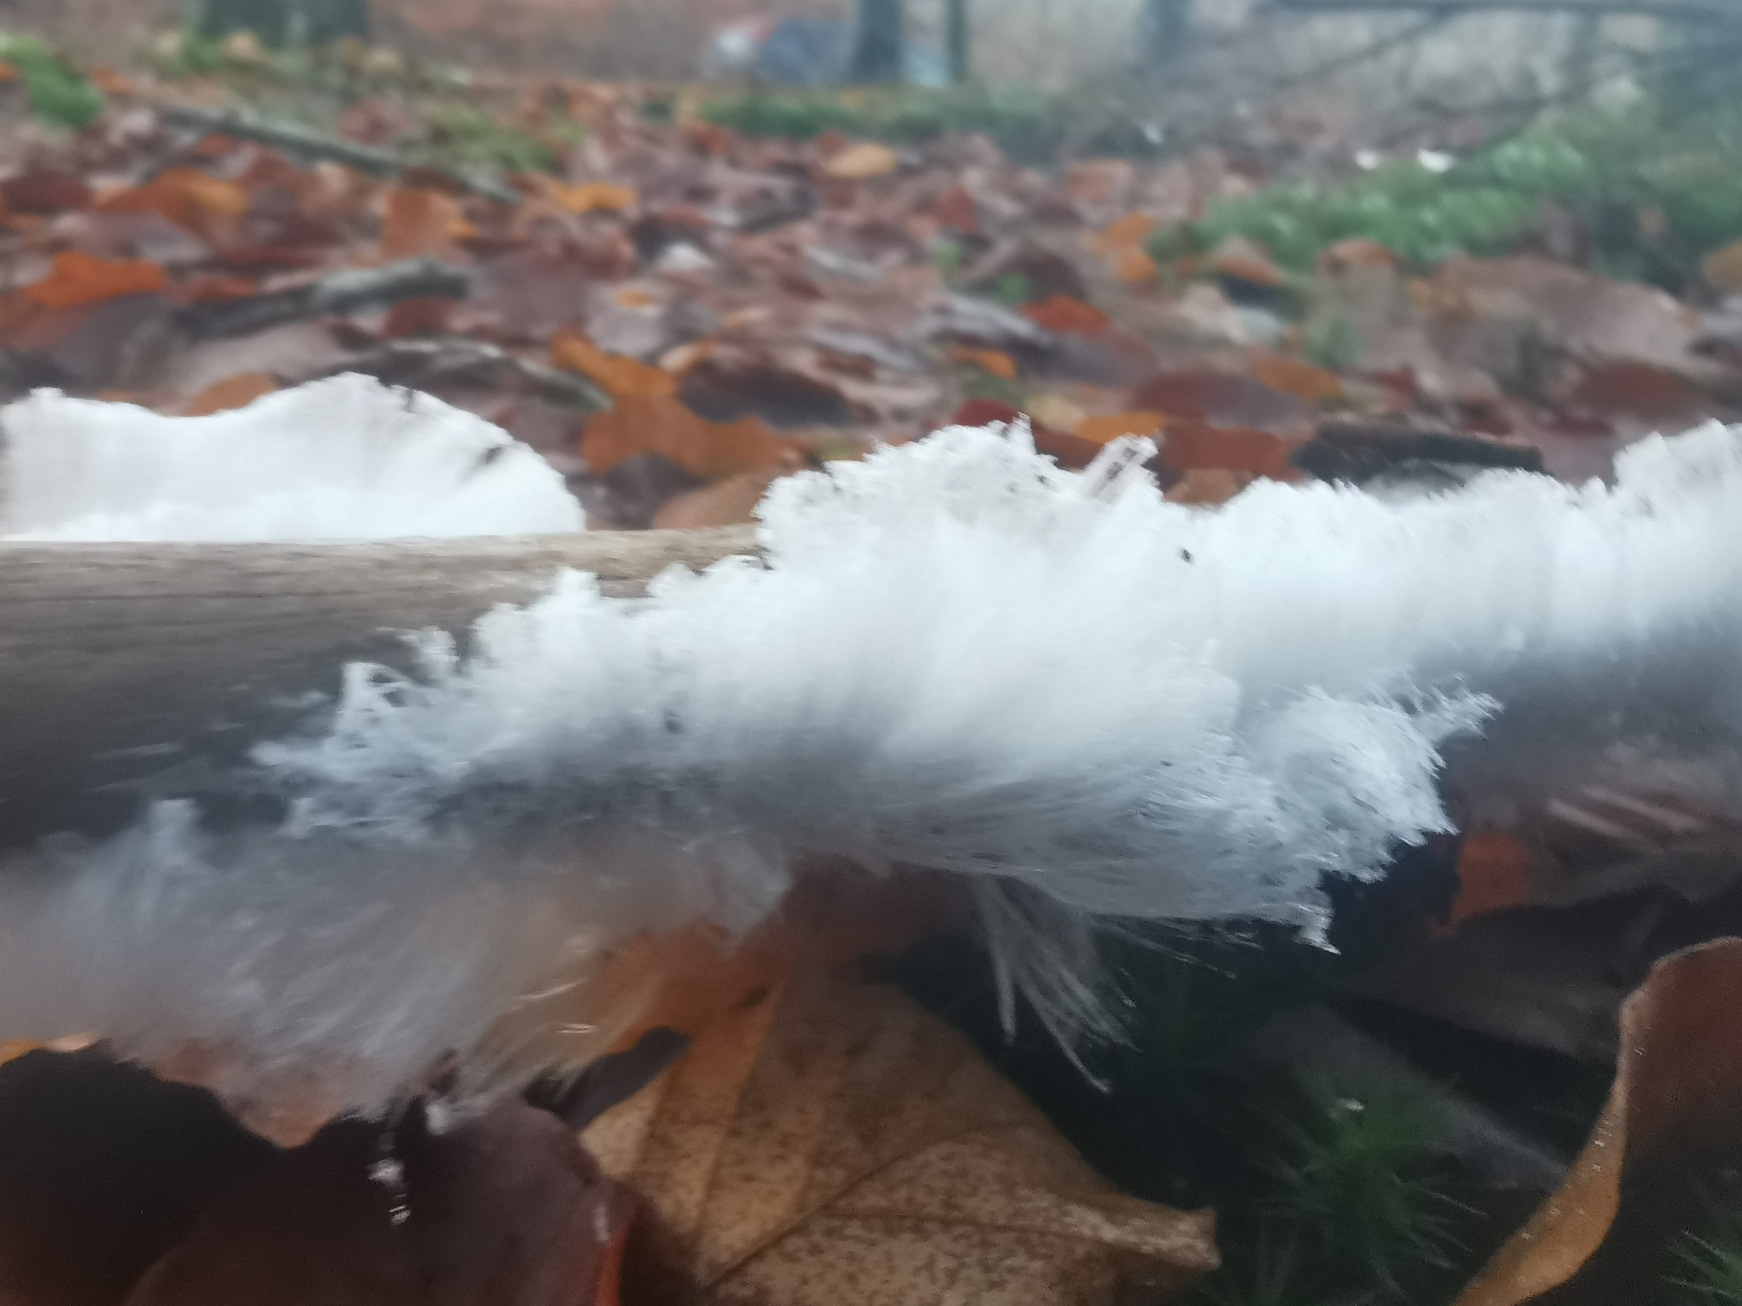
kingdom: Fungi
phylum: Basidiomycota
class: Tremellomycetes
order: Tremellales
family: Exidiaceae
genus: Exidiopsis
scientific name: Exidiopsis effusa
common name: Smuk bævrehinde
